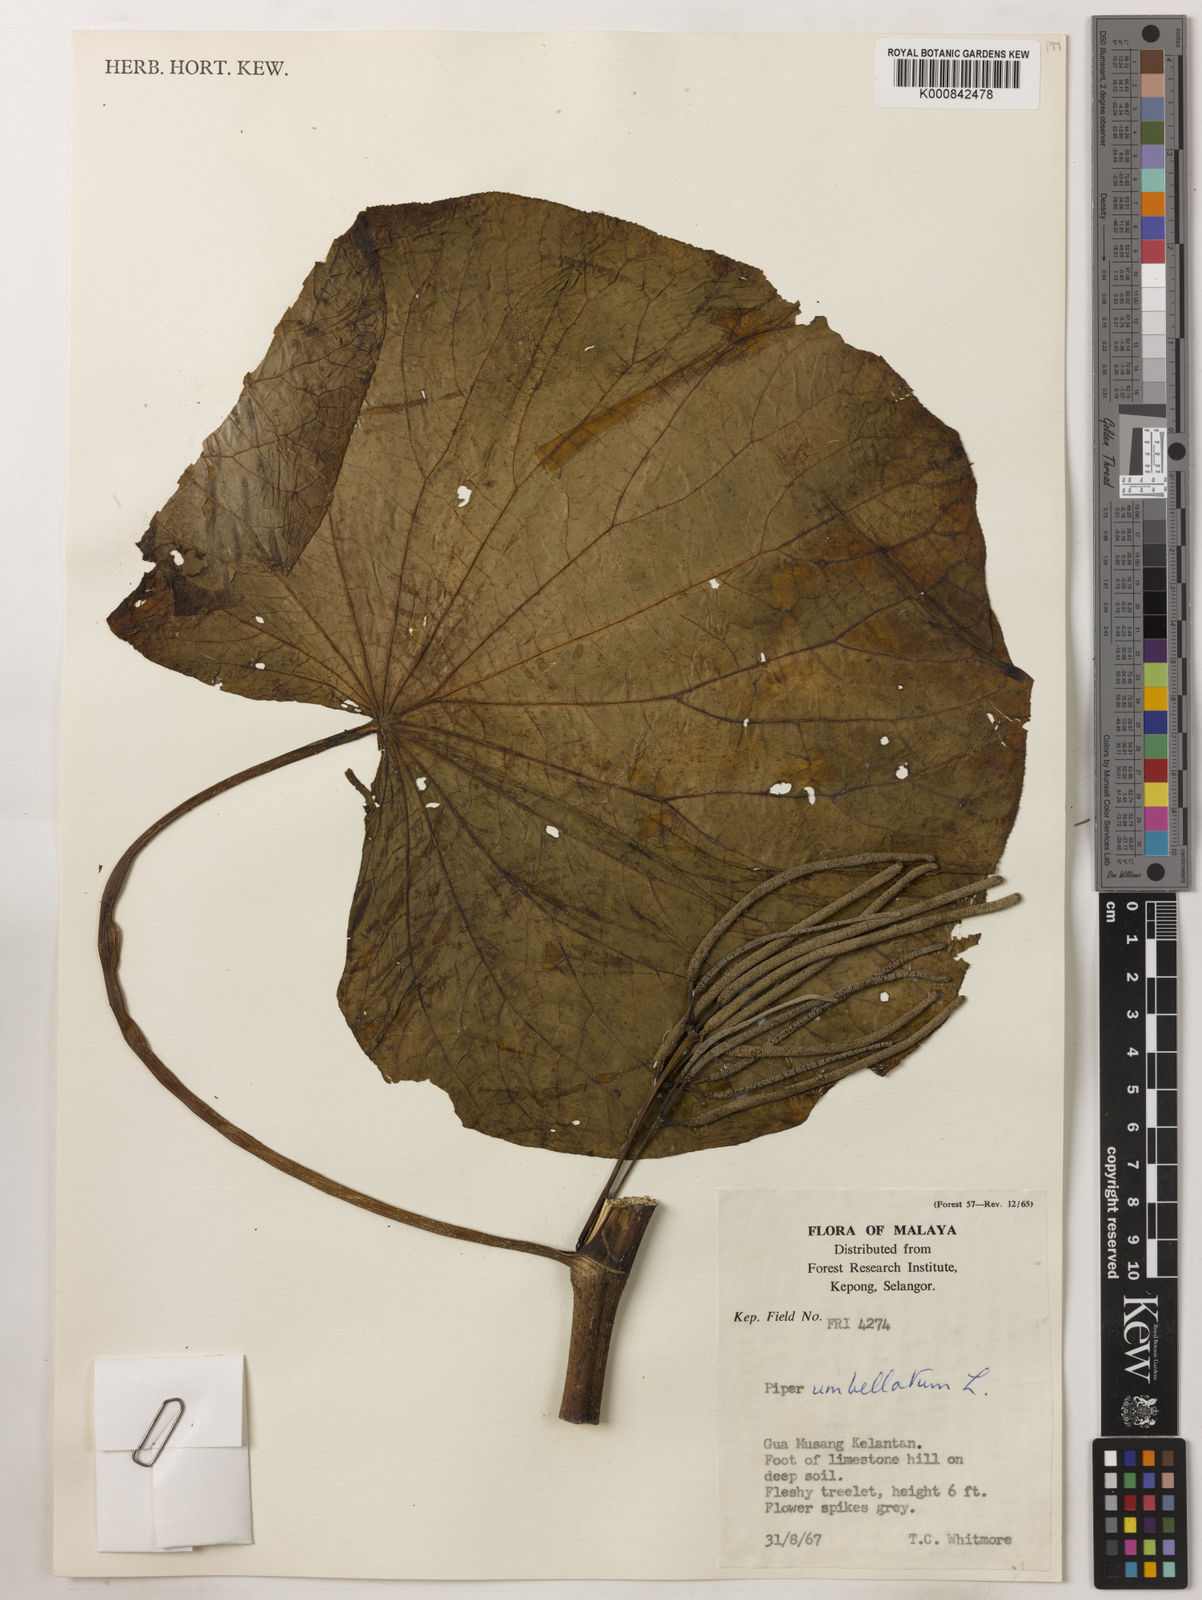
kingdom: Plantae
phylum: Tracheophyta
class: Magnoliopsida
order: Piperales
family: Piperaceae
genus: Piper
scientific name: Piper umbellatum
